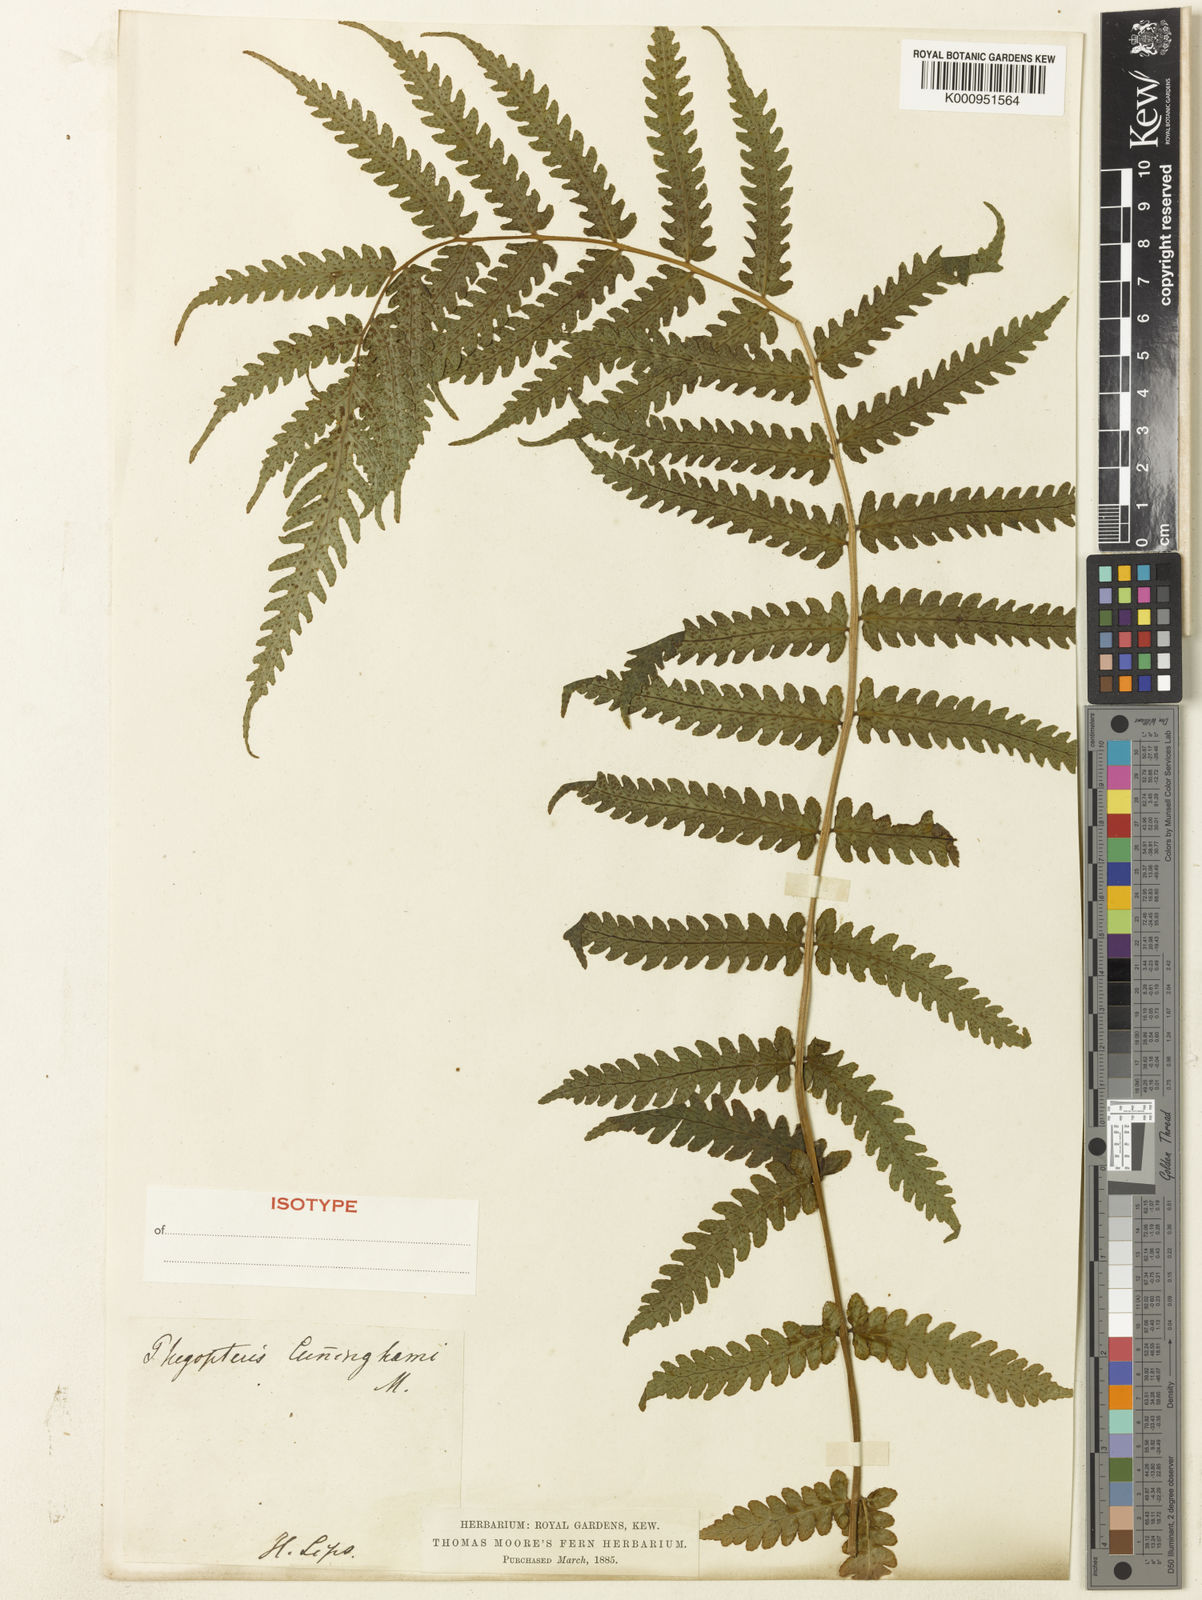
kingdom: Plantae
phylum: Tracheophyta
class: Polypodiopsida
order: Polypodiales
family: Thelypteridaceae
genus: Pakau
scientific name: Pakau pennigera
